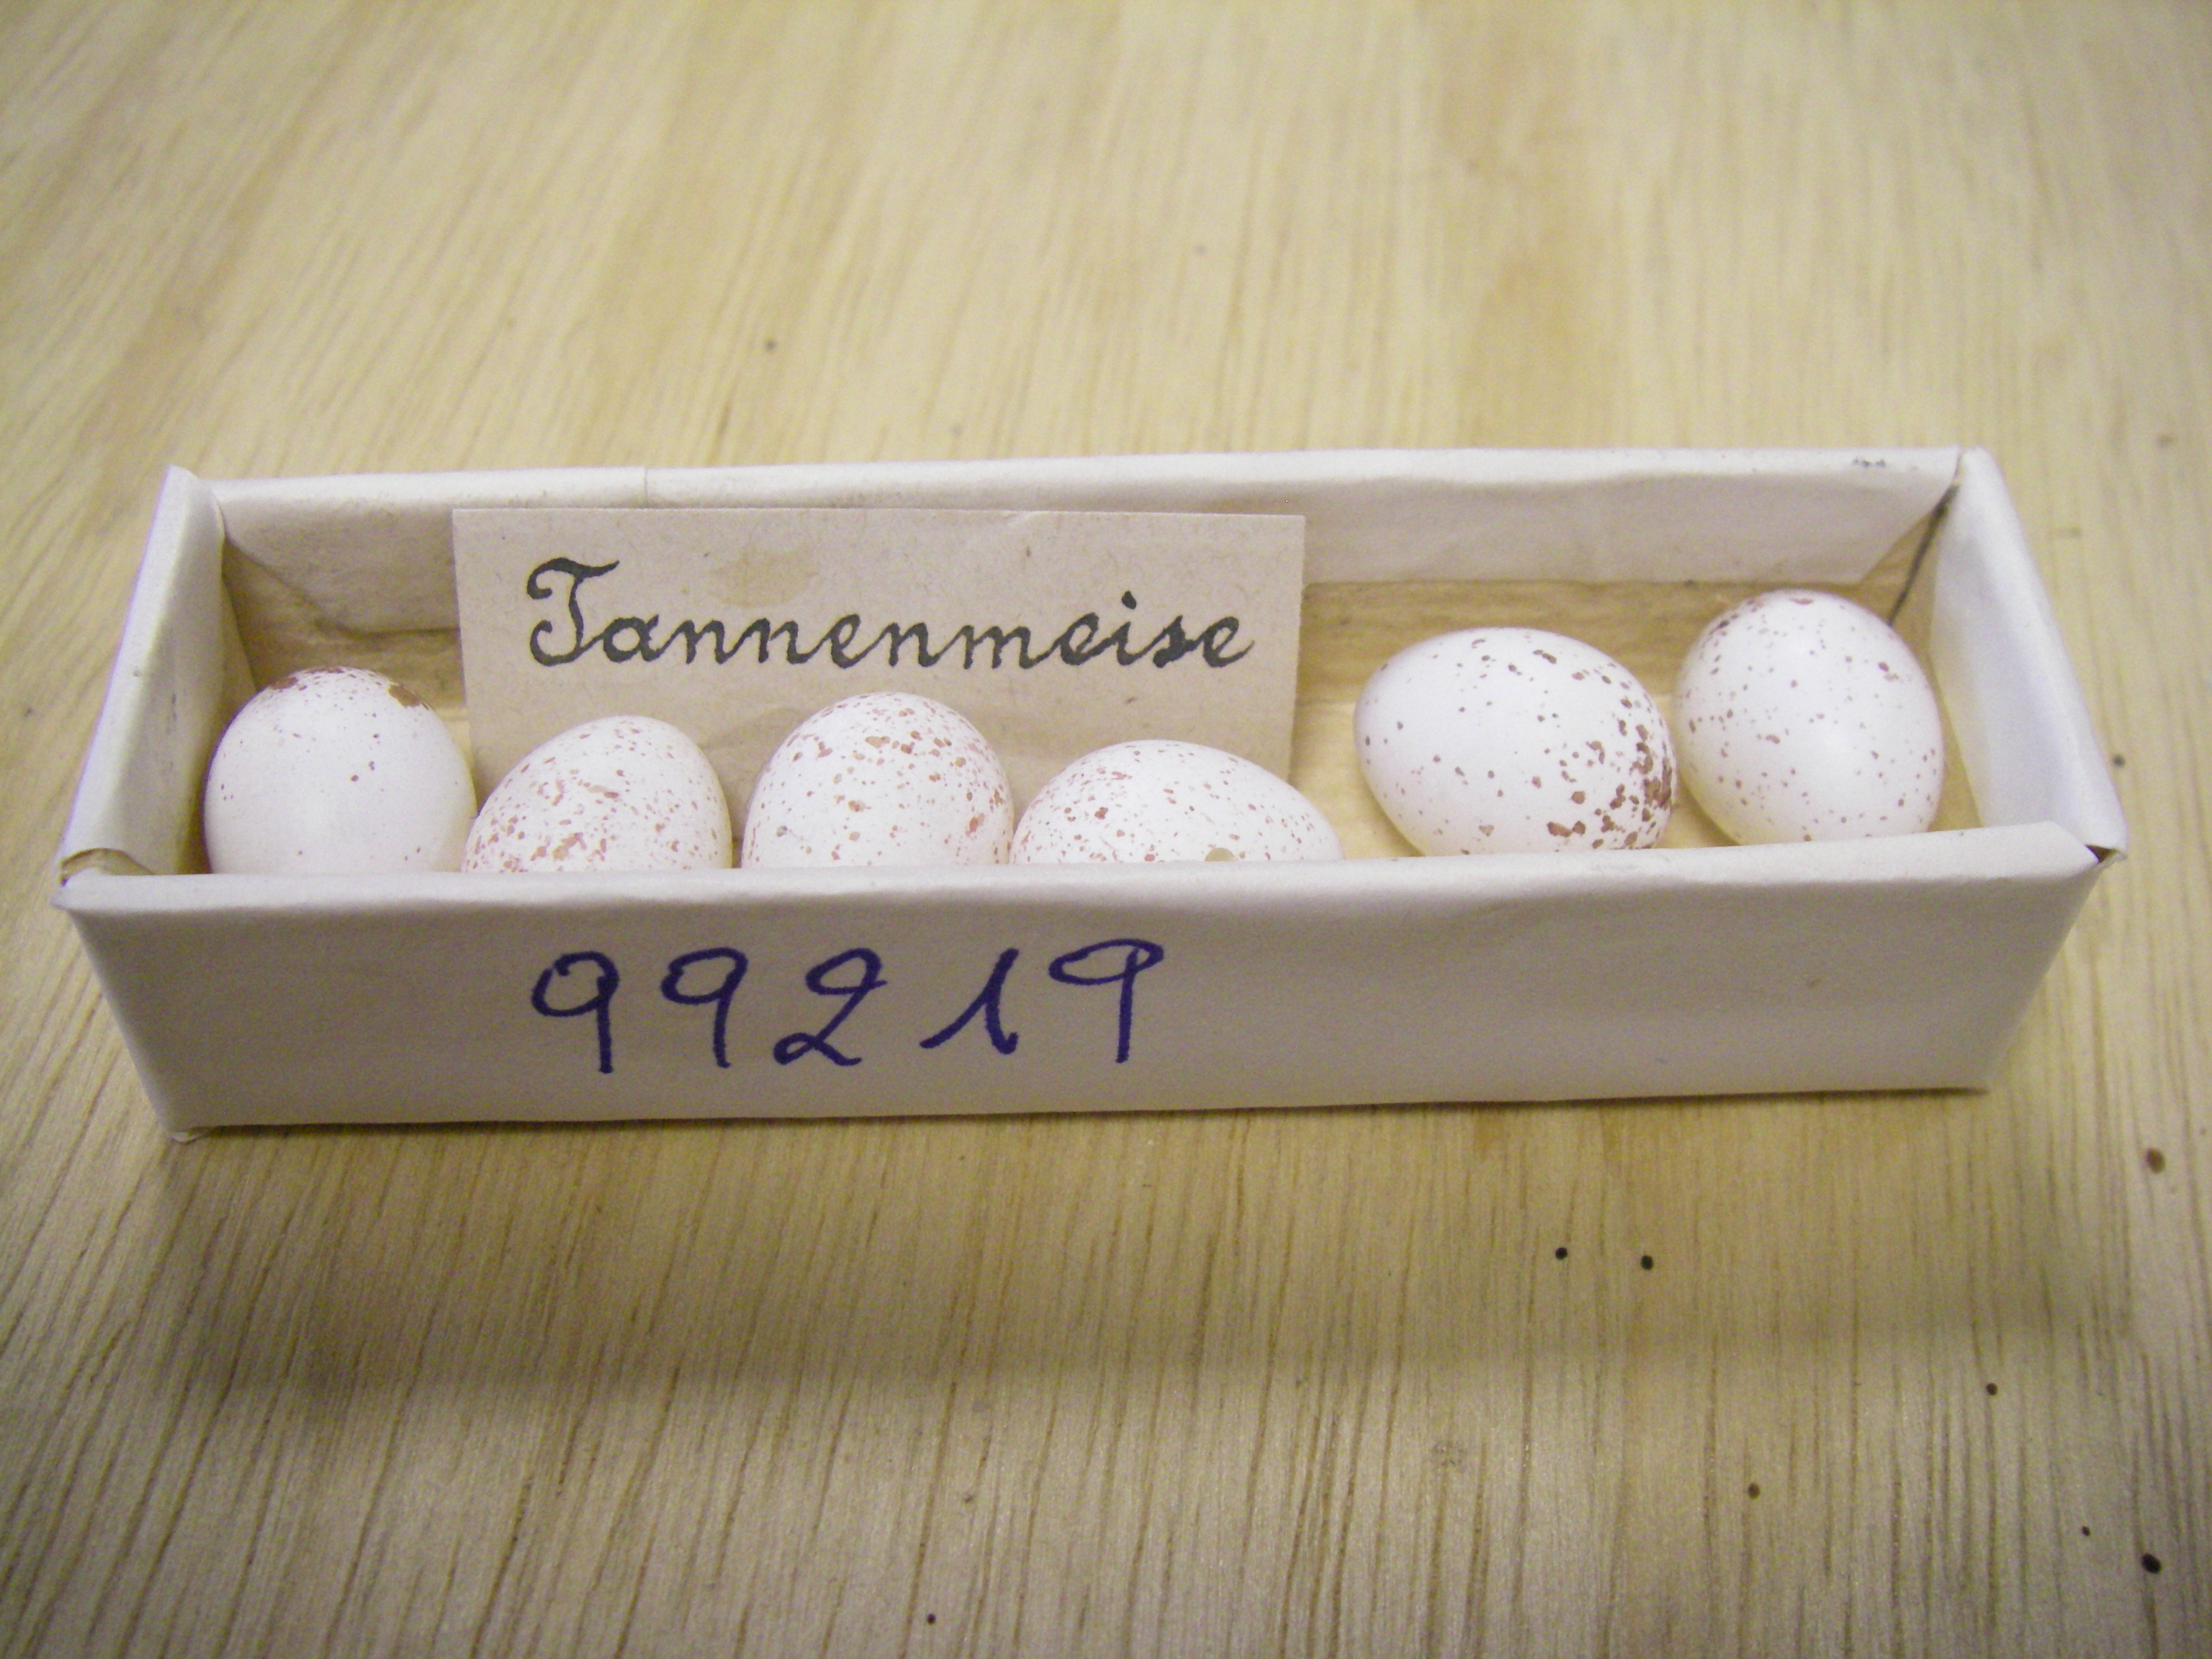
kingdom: Animalia
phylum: Chordata
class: Aves
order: Passeriformes
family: Paridae
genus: Periparus
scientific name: Periparus ater
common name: Coal tit
